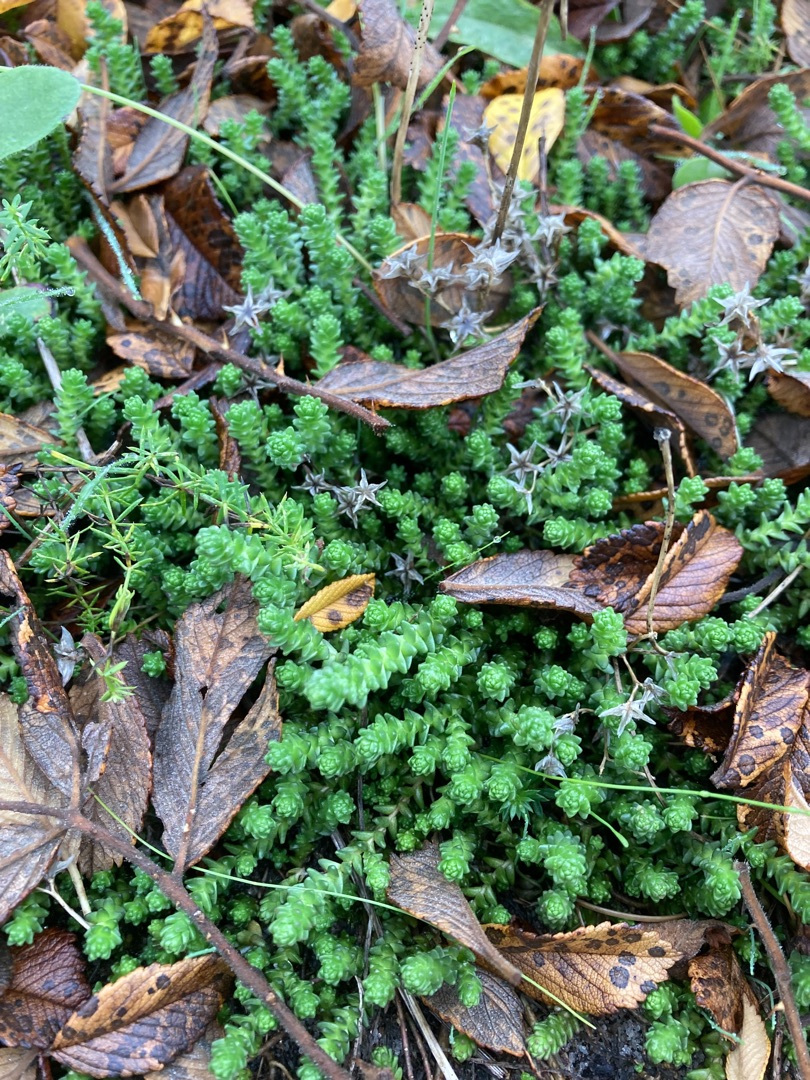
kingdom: Plantae
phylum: Tracheophyta
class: Magnoliopsida
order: Saxifragales
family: Crassulaceae
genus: Sedum
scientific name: Sedum acre
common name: Bidende stenurt
